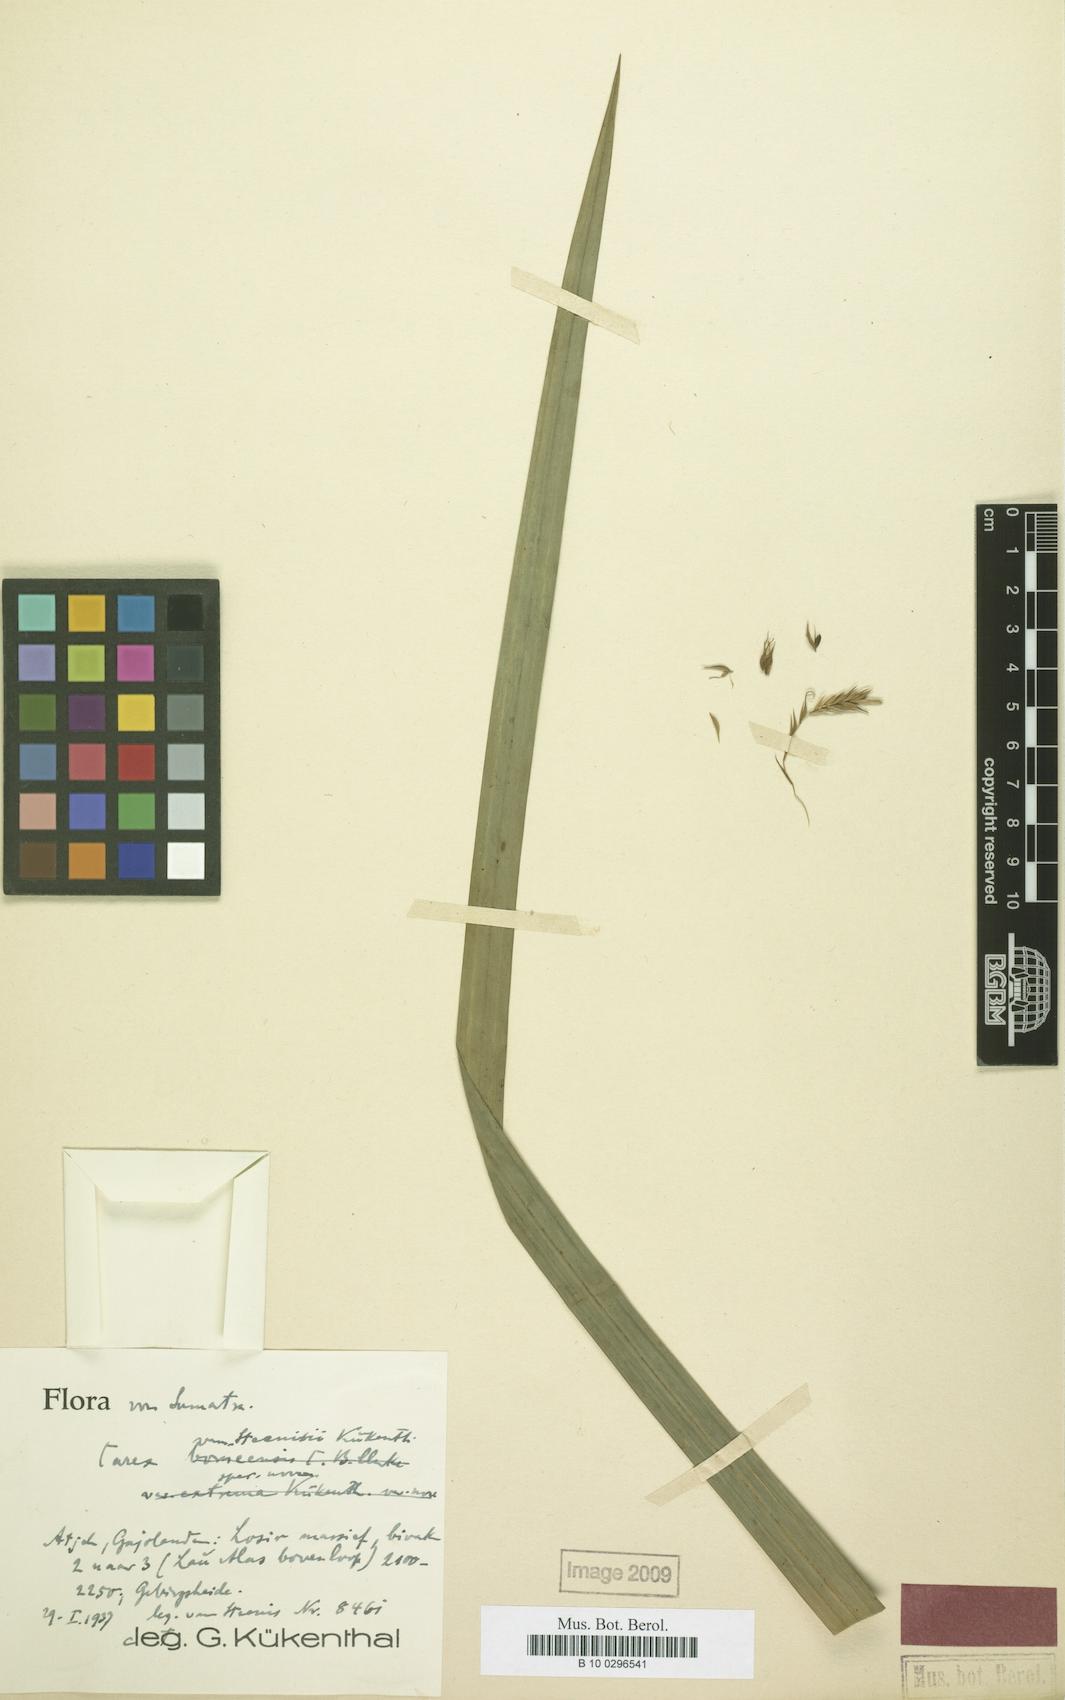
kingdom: Plantae
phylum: Tracheophyta
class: Liliopsida
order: Poales
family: Cyperaceae
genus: Carex
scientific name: Carex perakensis
